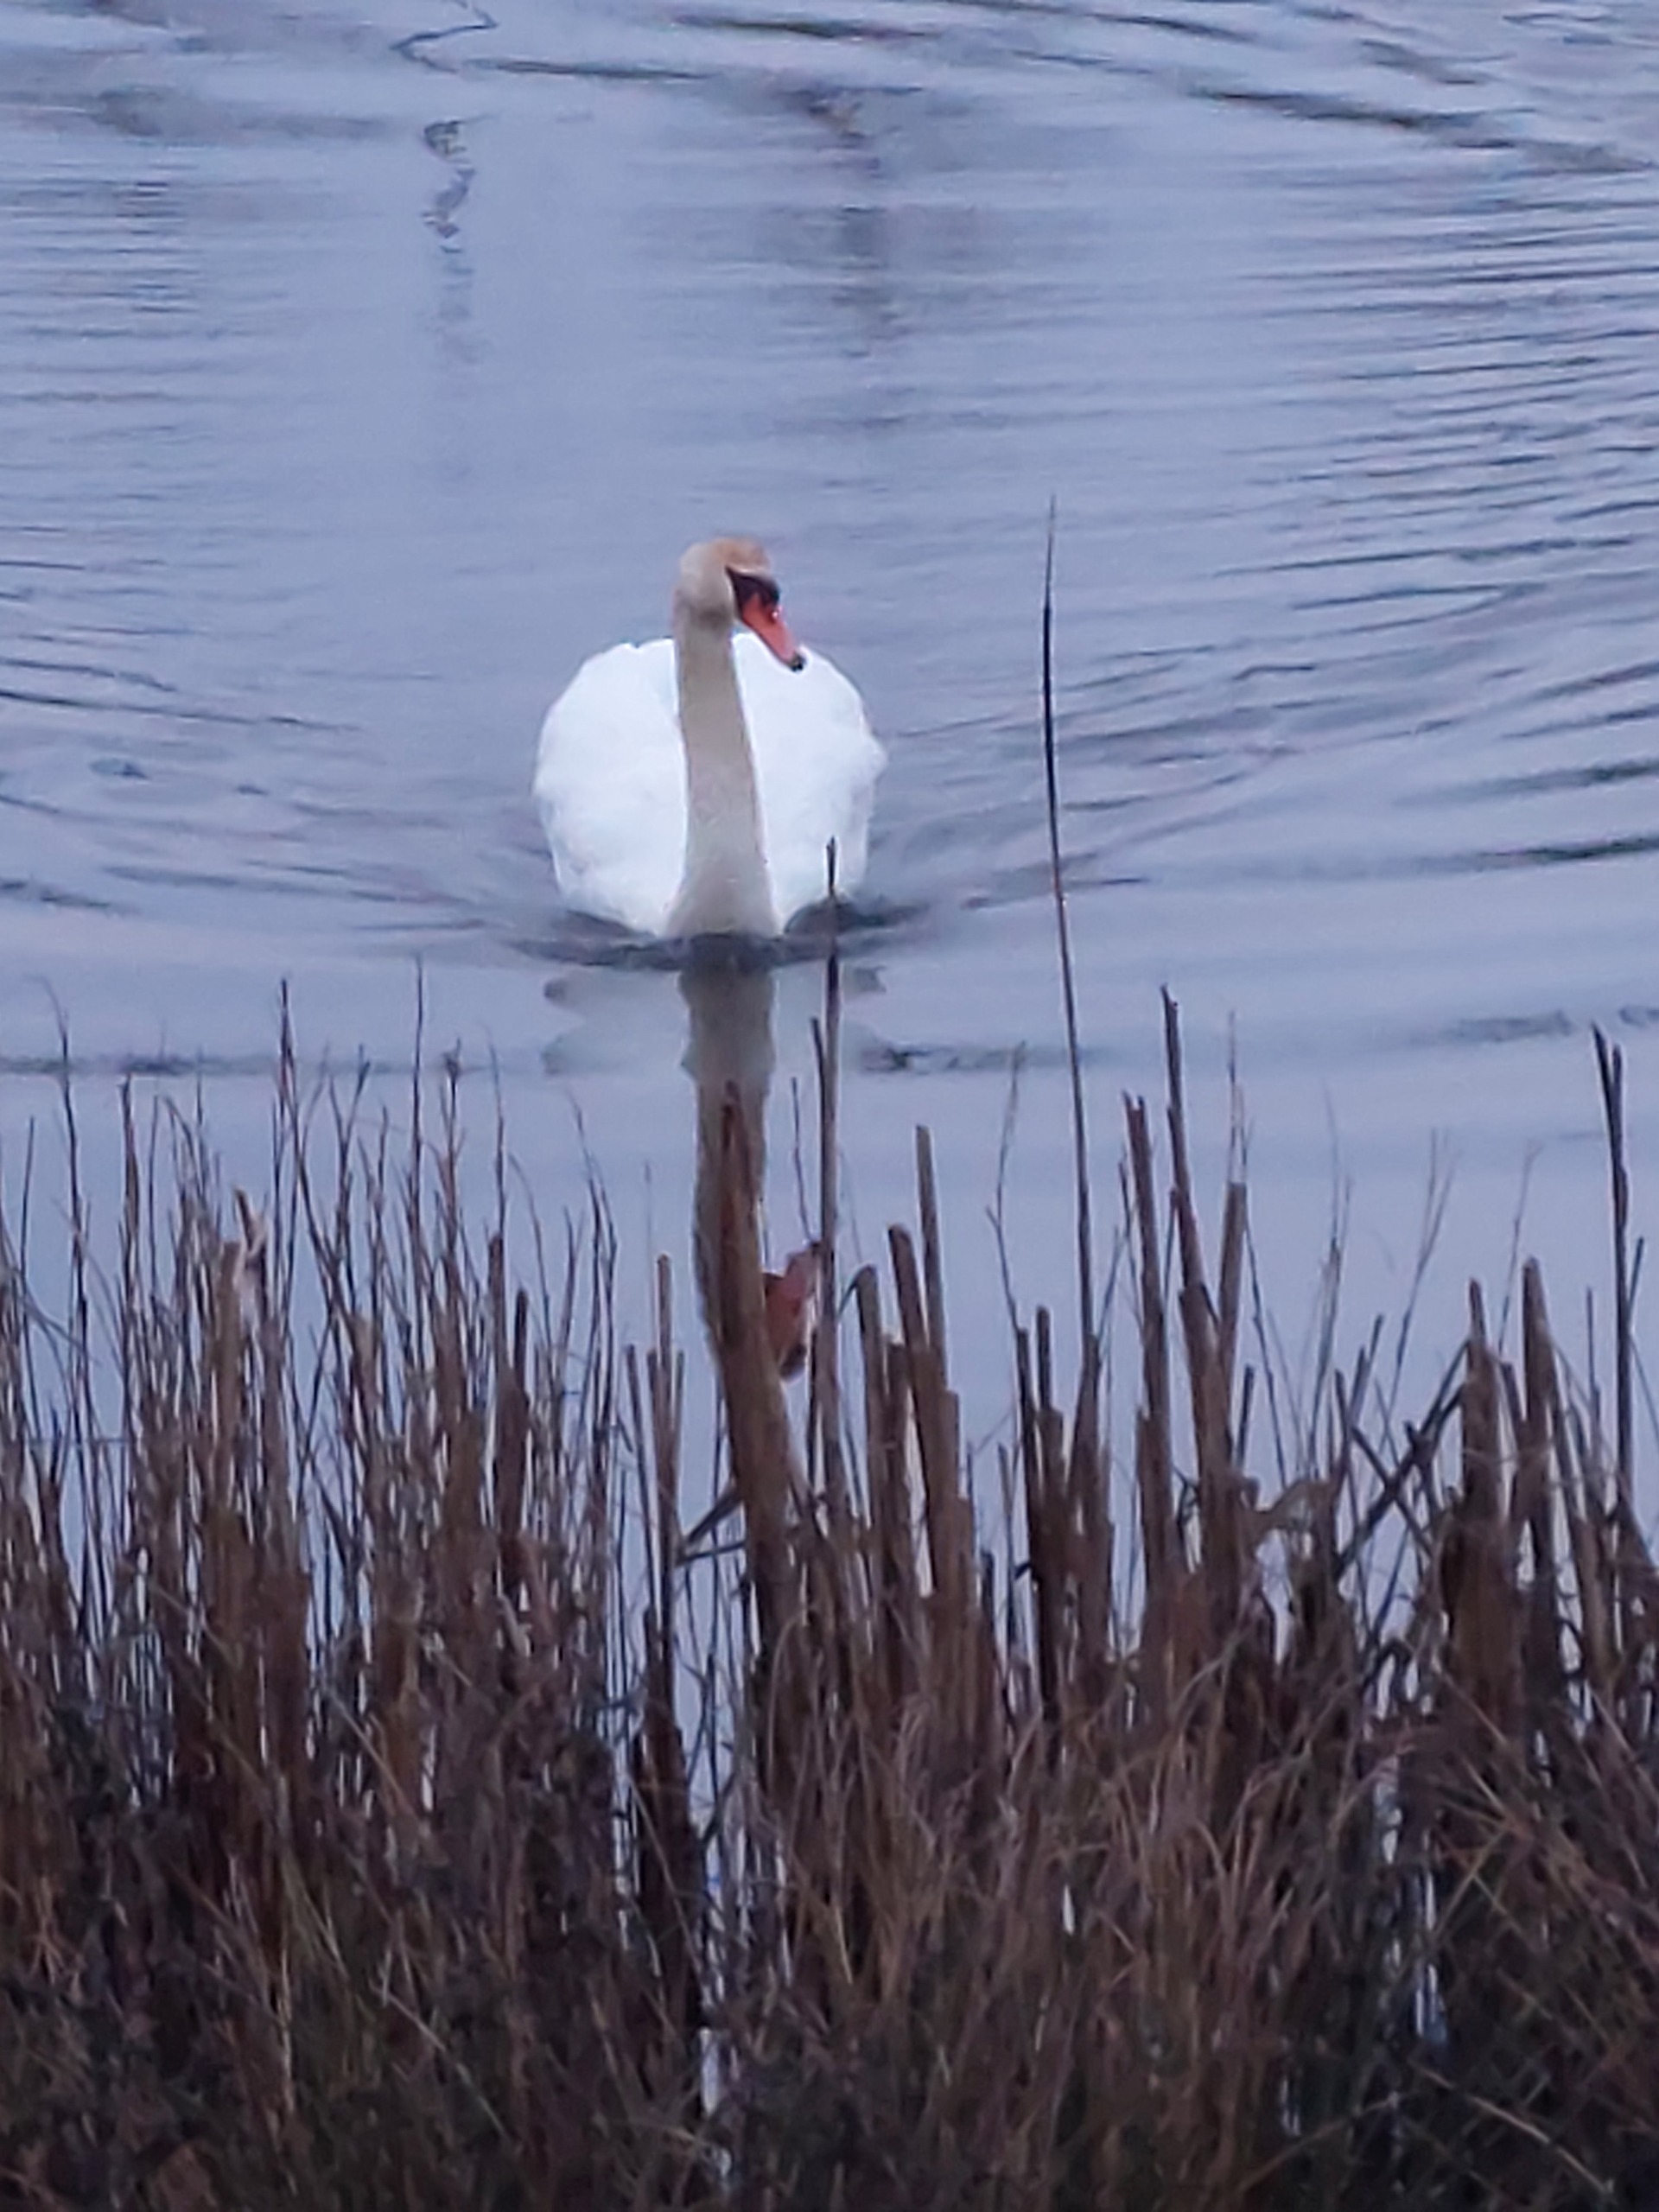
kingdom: Animalia
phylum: Chordata
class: Aves
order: Anseriformes
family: Anatidae
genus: Cygnus
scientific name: Cygnus olor
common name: Knopsvane
